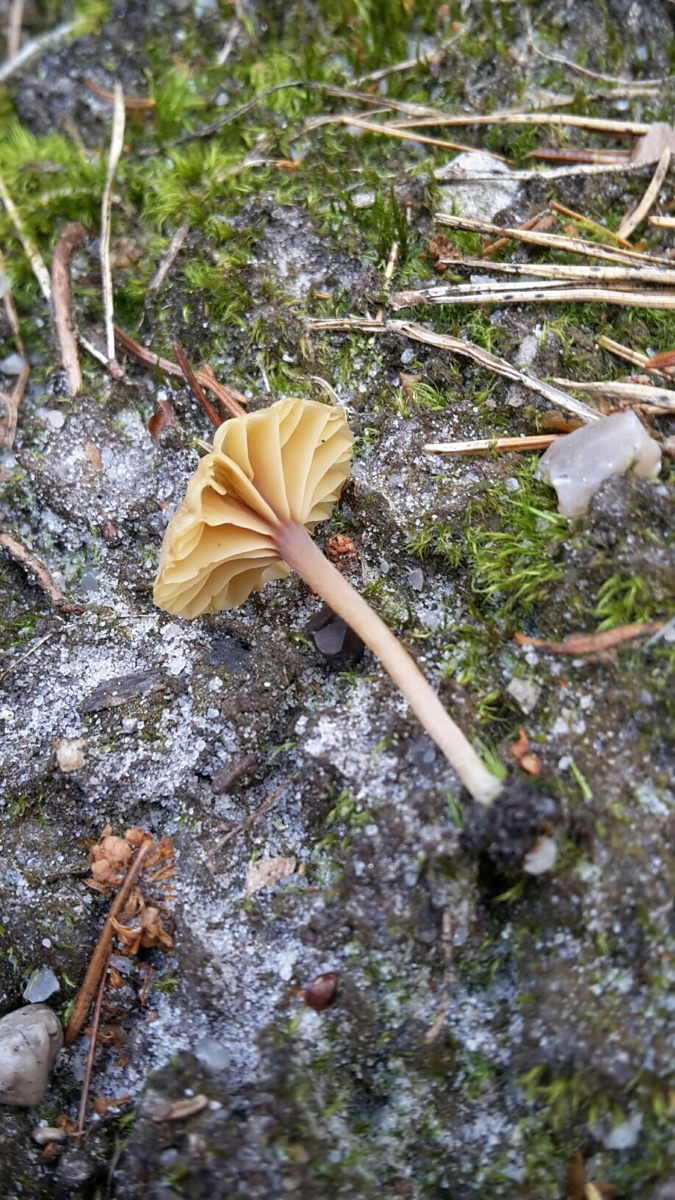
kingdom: Fungi
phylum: Basidiomycota
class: Agaricomycetes
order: Agaricales
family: Hygrophoraceae
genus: Lichenomphalia
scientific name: Lichenomphalia umbellifera
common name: tørve-lavhat
